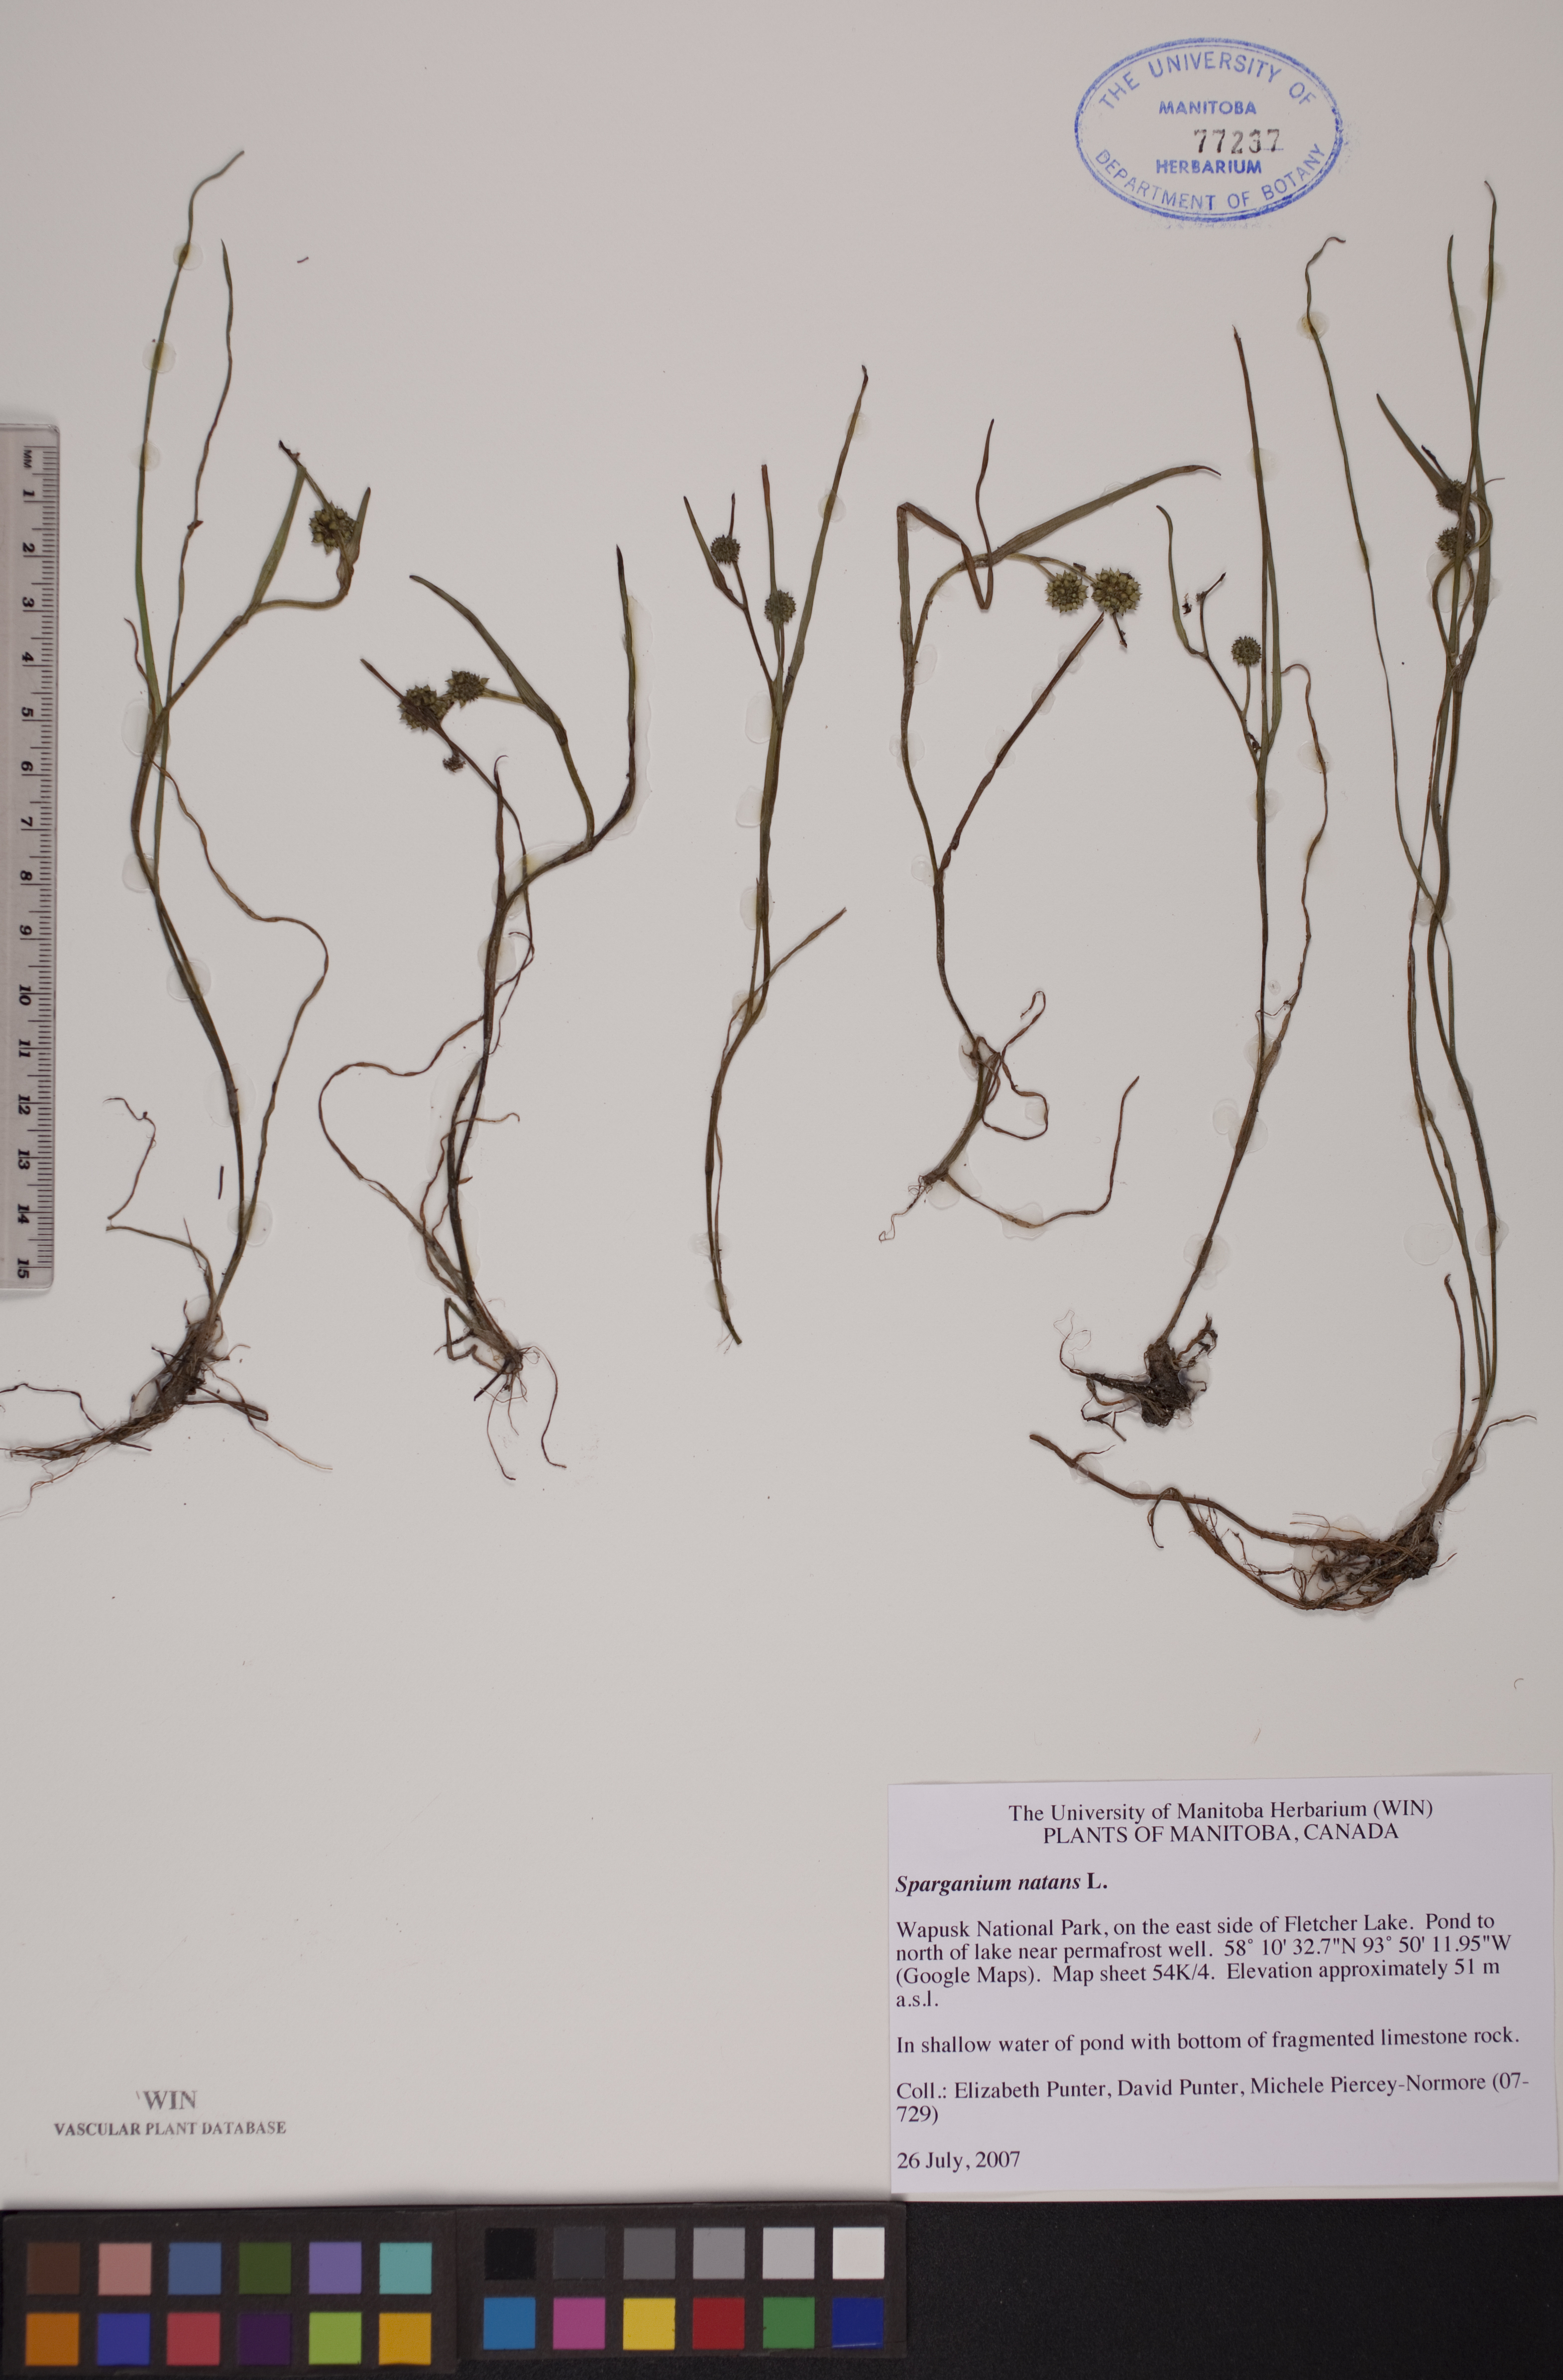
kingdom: Plantae
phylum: Tracheophyta
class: Liliopsida
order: Poales
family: Typhaceae
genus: Sparganium
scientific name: Sparganium natans
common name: Least bur-reed
